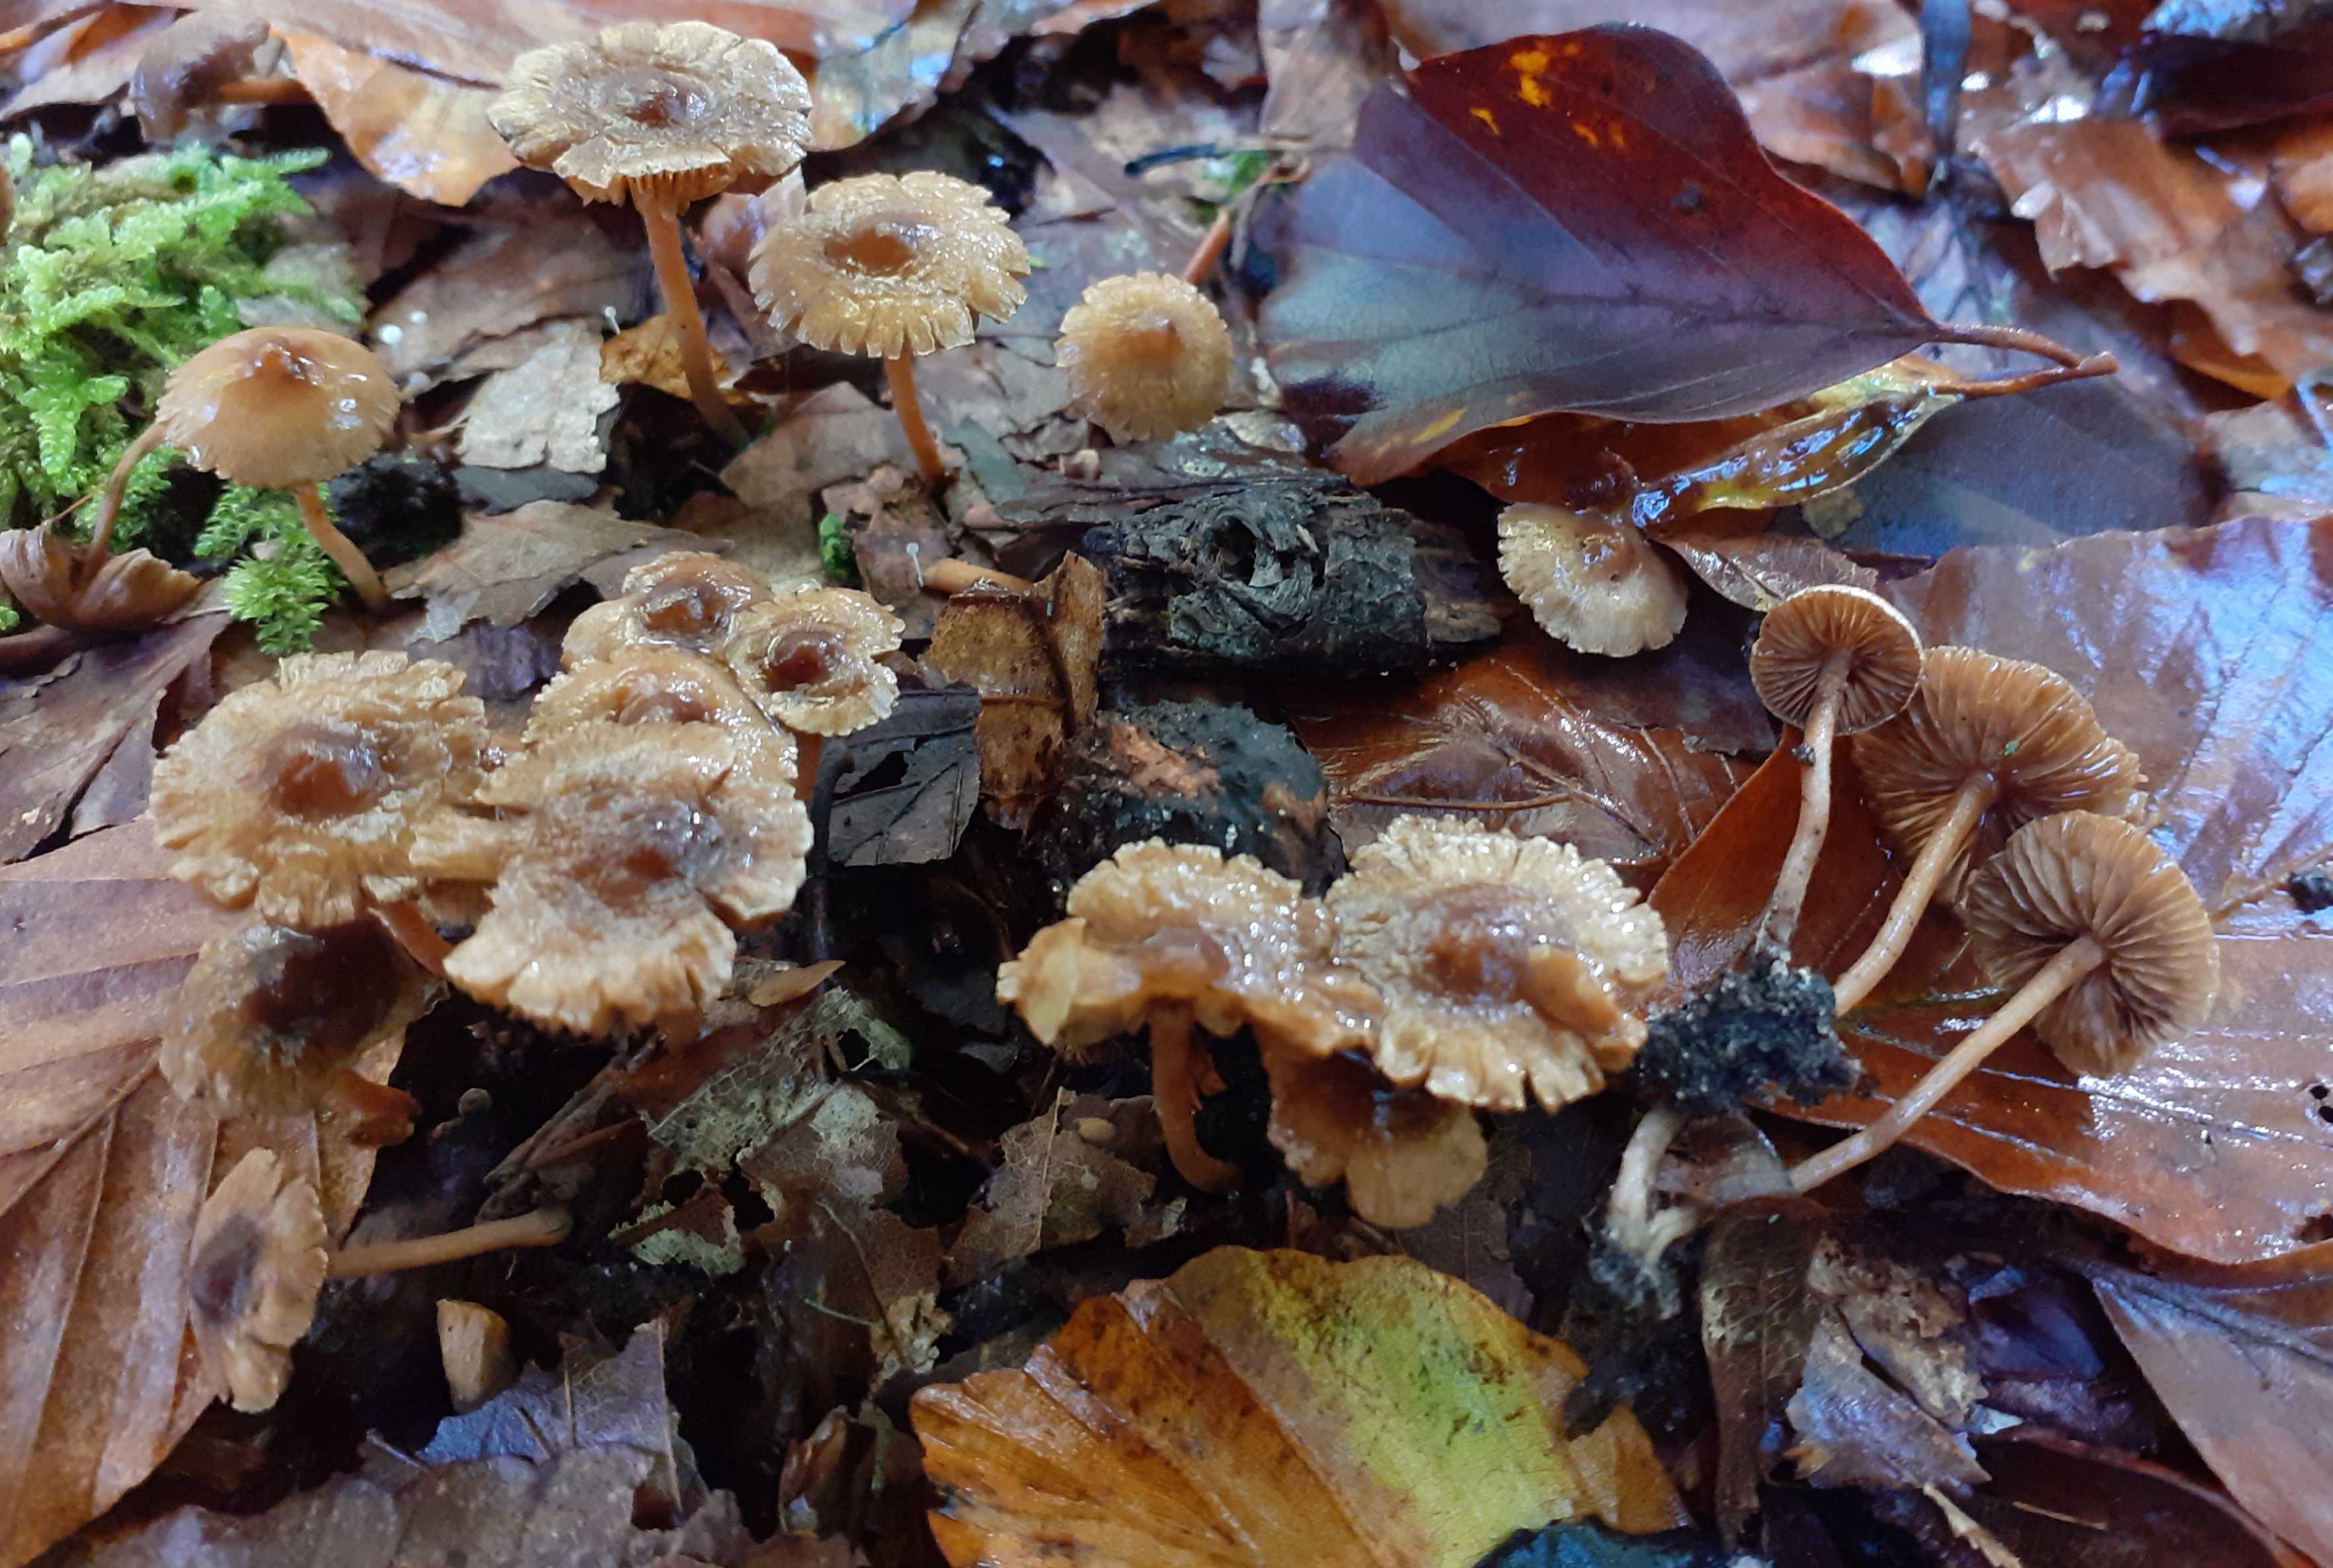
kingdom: Fungi
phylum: Basidiomycota
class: Agaricomycetes
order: Agaricales
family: Inocybaceae
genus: Inocybe
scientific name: Inocybe petiginosa
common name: liden trævlhat
